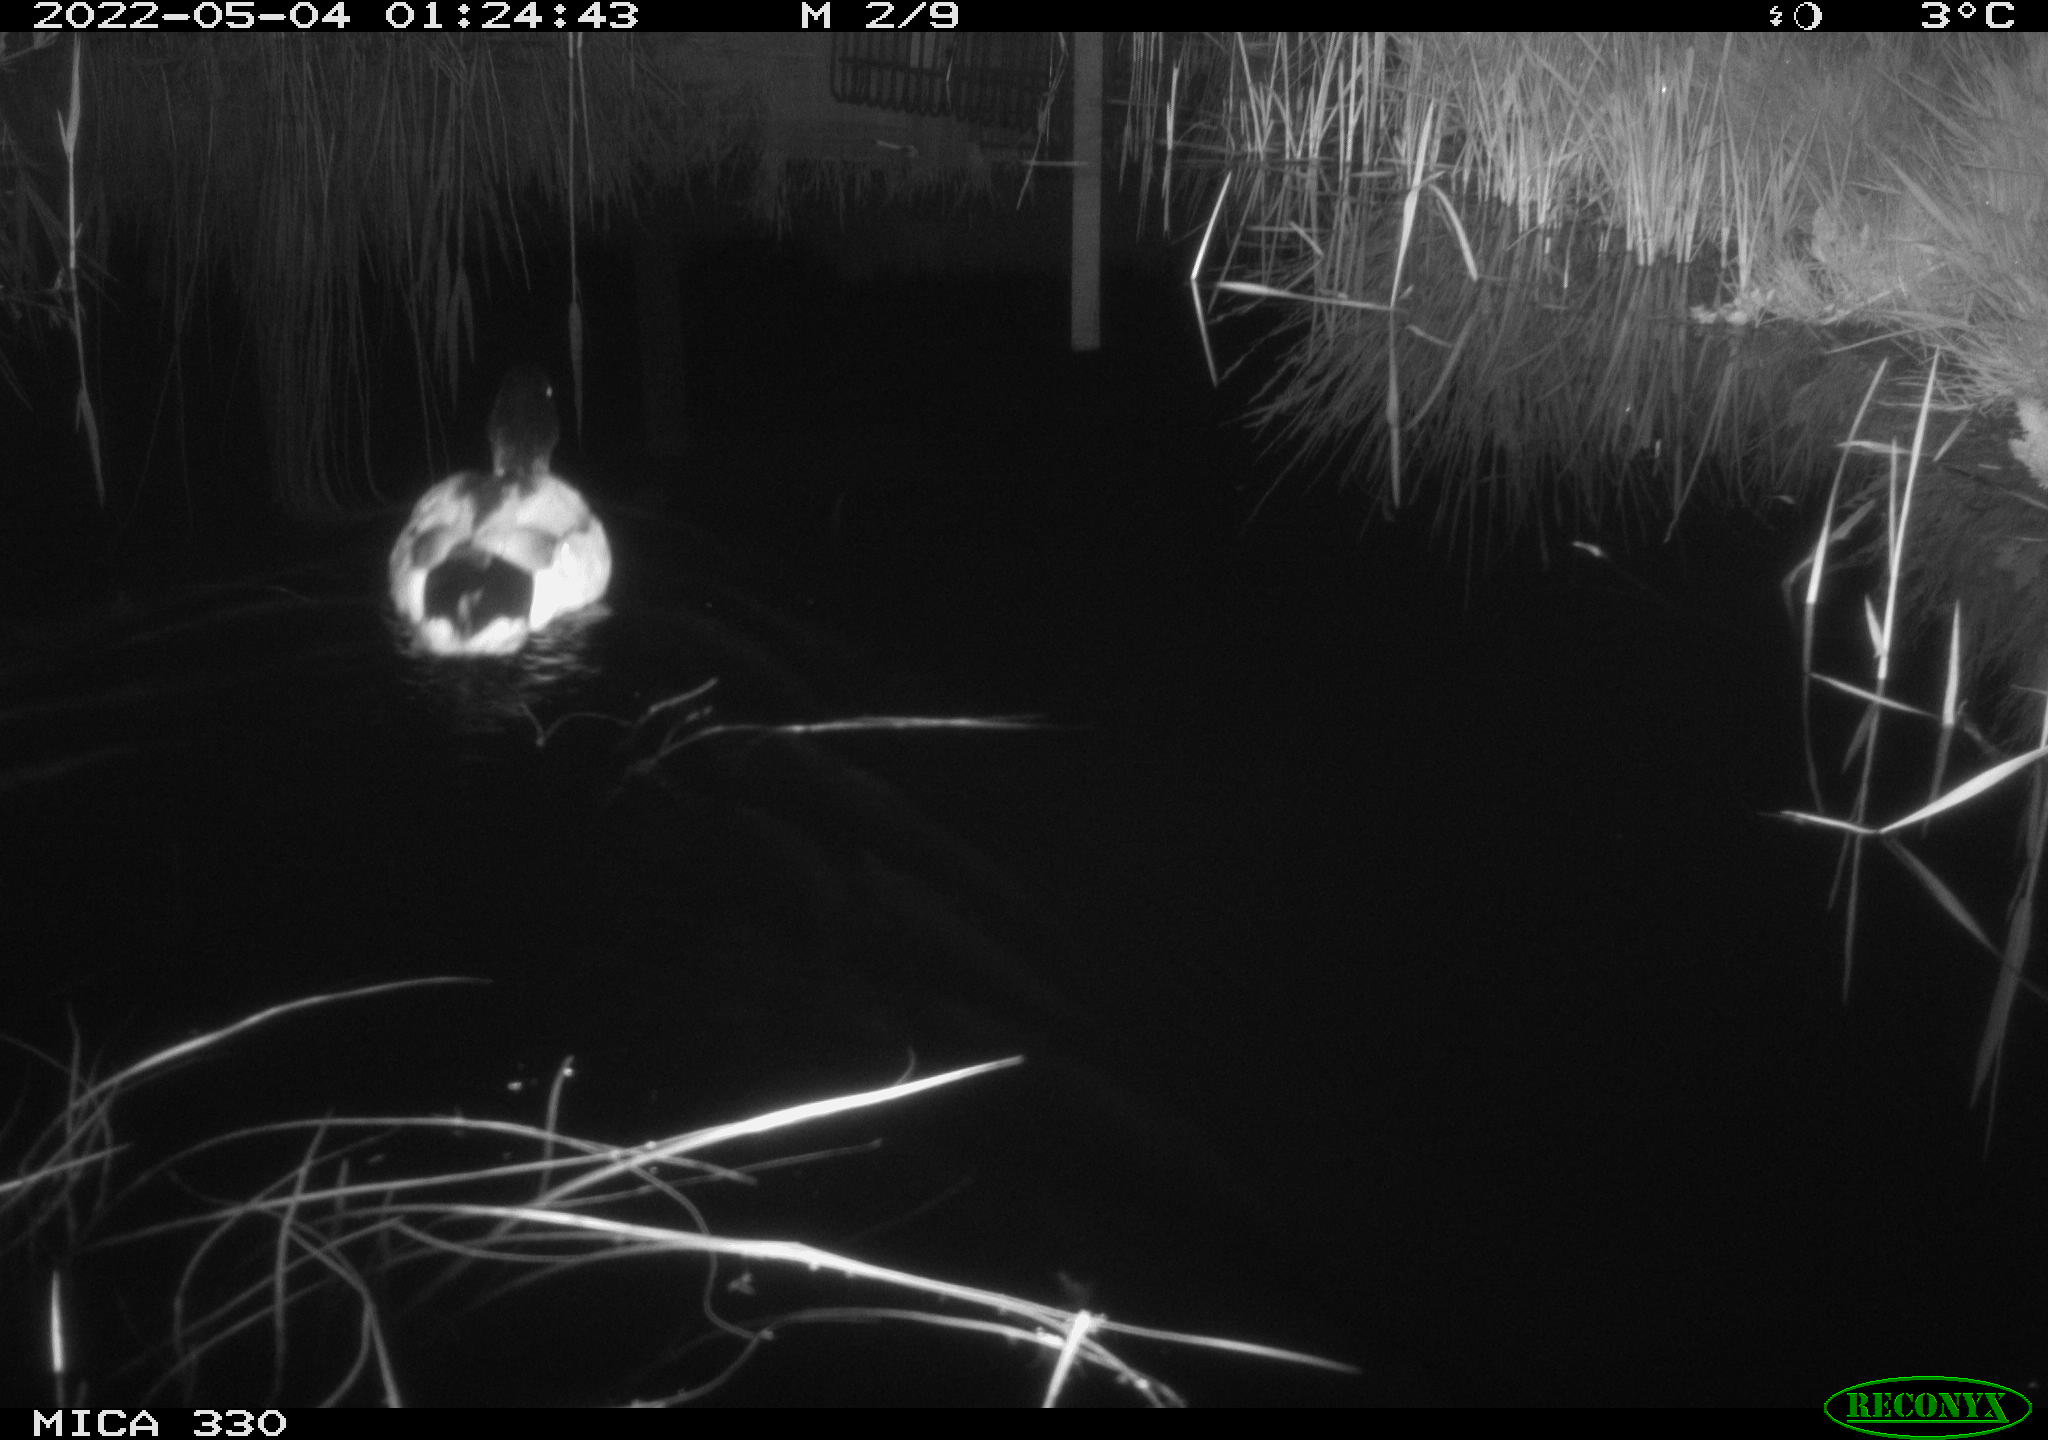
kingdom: Animalia
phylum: Chordata
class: Aves
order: Anseriformes
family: Anatidae
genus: Anas
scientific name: Anas platyrhynchos
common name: Mallard
